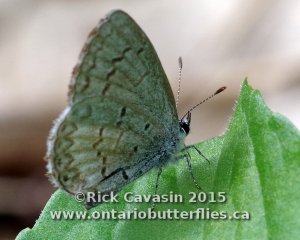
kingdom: Animalia
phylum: Arthropoda
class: Insecta
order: Lepidoptera
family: Lycaenidae
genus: Celastrina
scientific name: Celastrina lucia
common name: Northern Spring Azure
